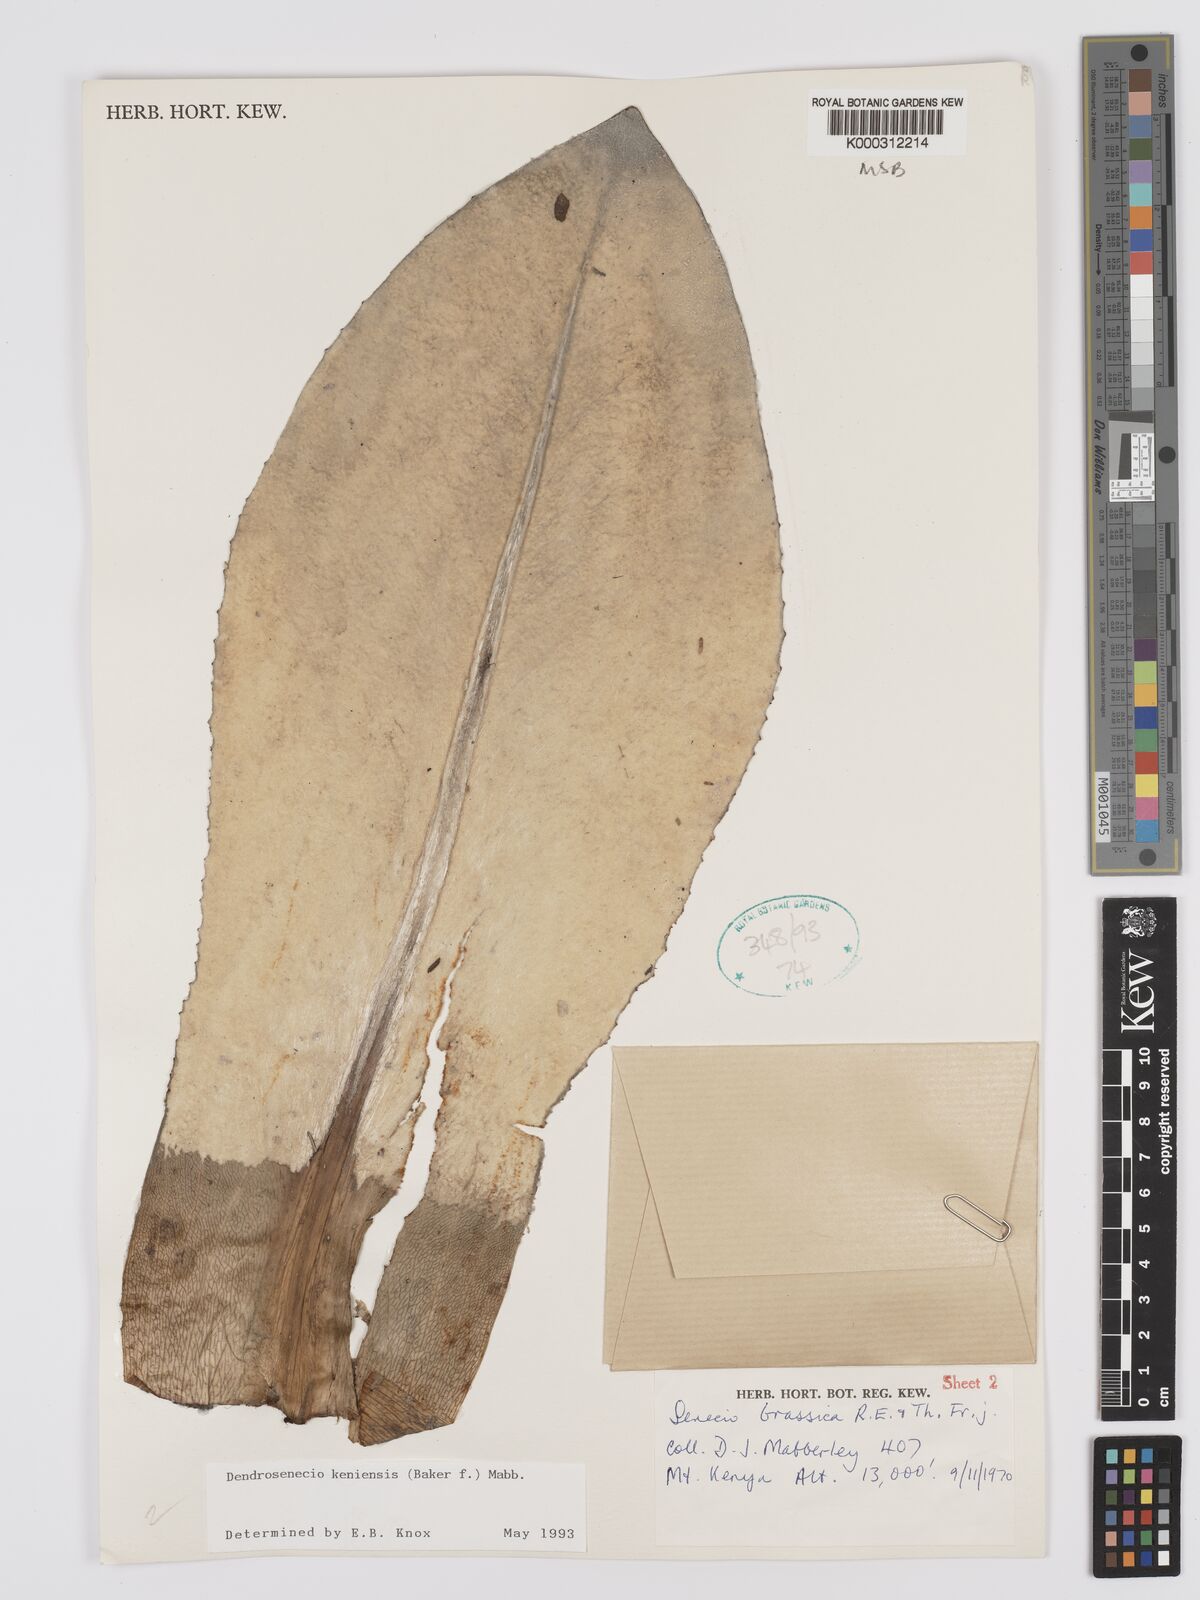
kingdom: Plantae
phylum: Tracheophyta
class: Magnoliopsida
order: Asterales
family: Asteraceae
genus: Dendrosenecio
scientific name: Dendrosenecio keniensis
